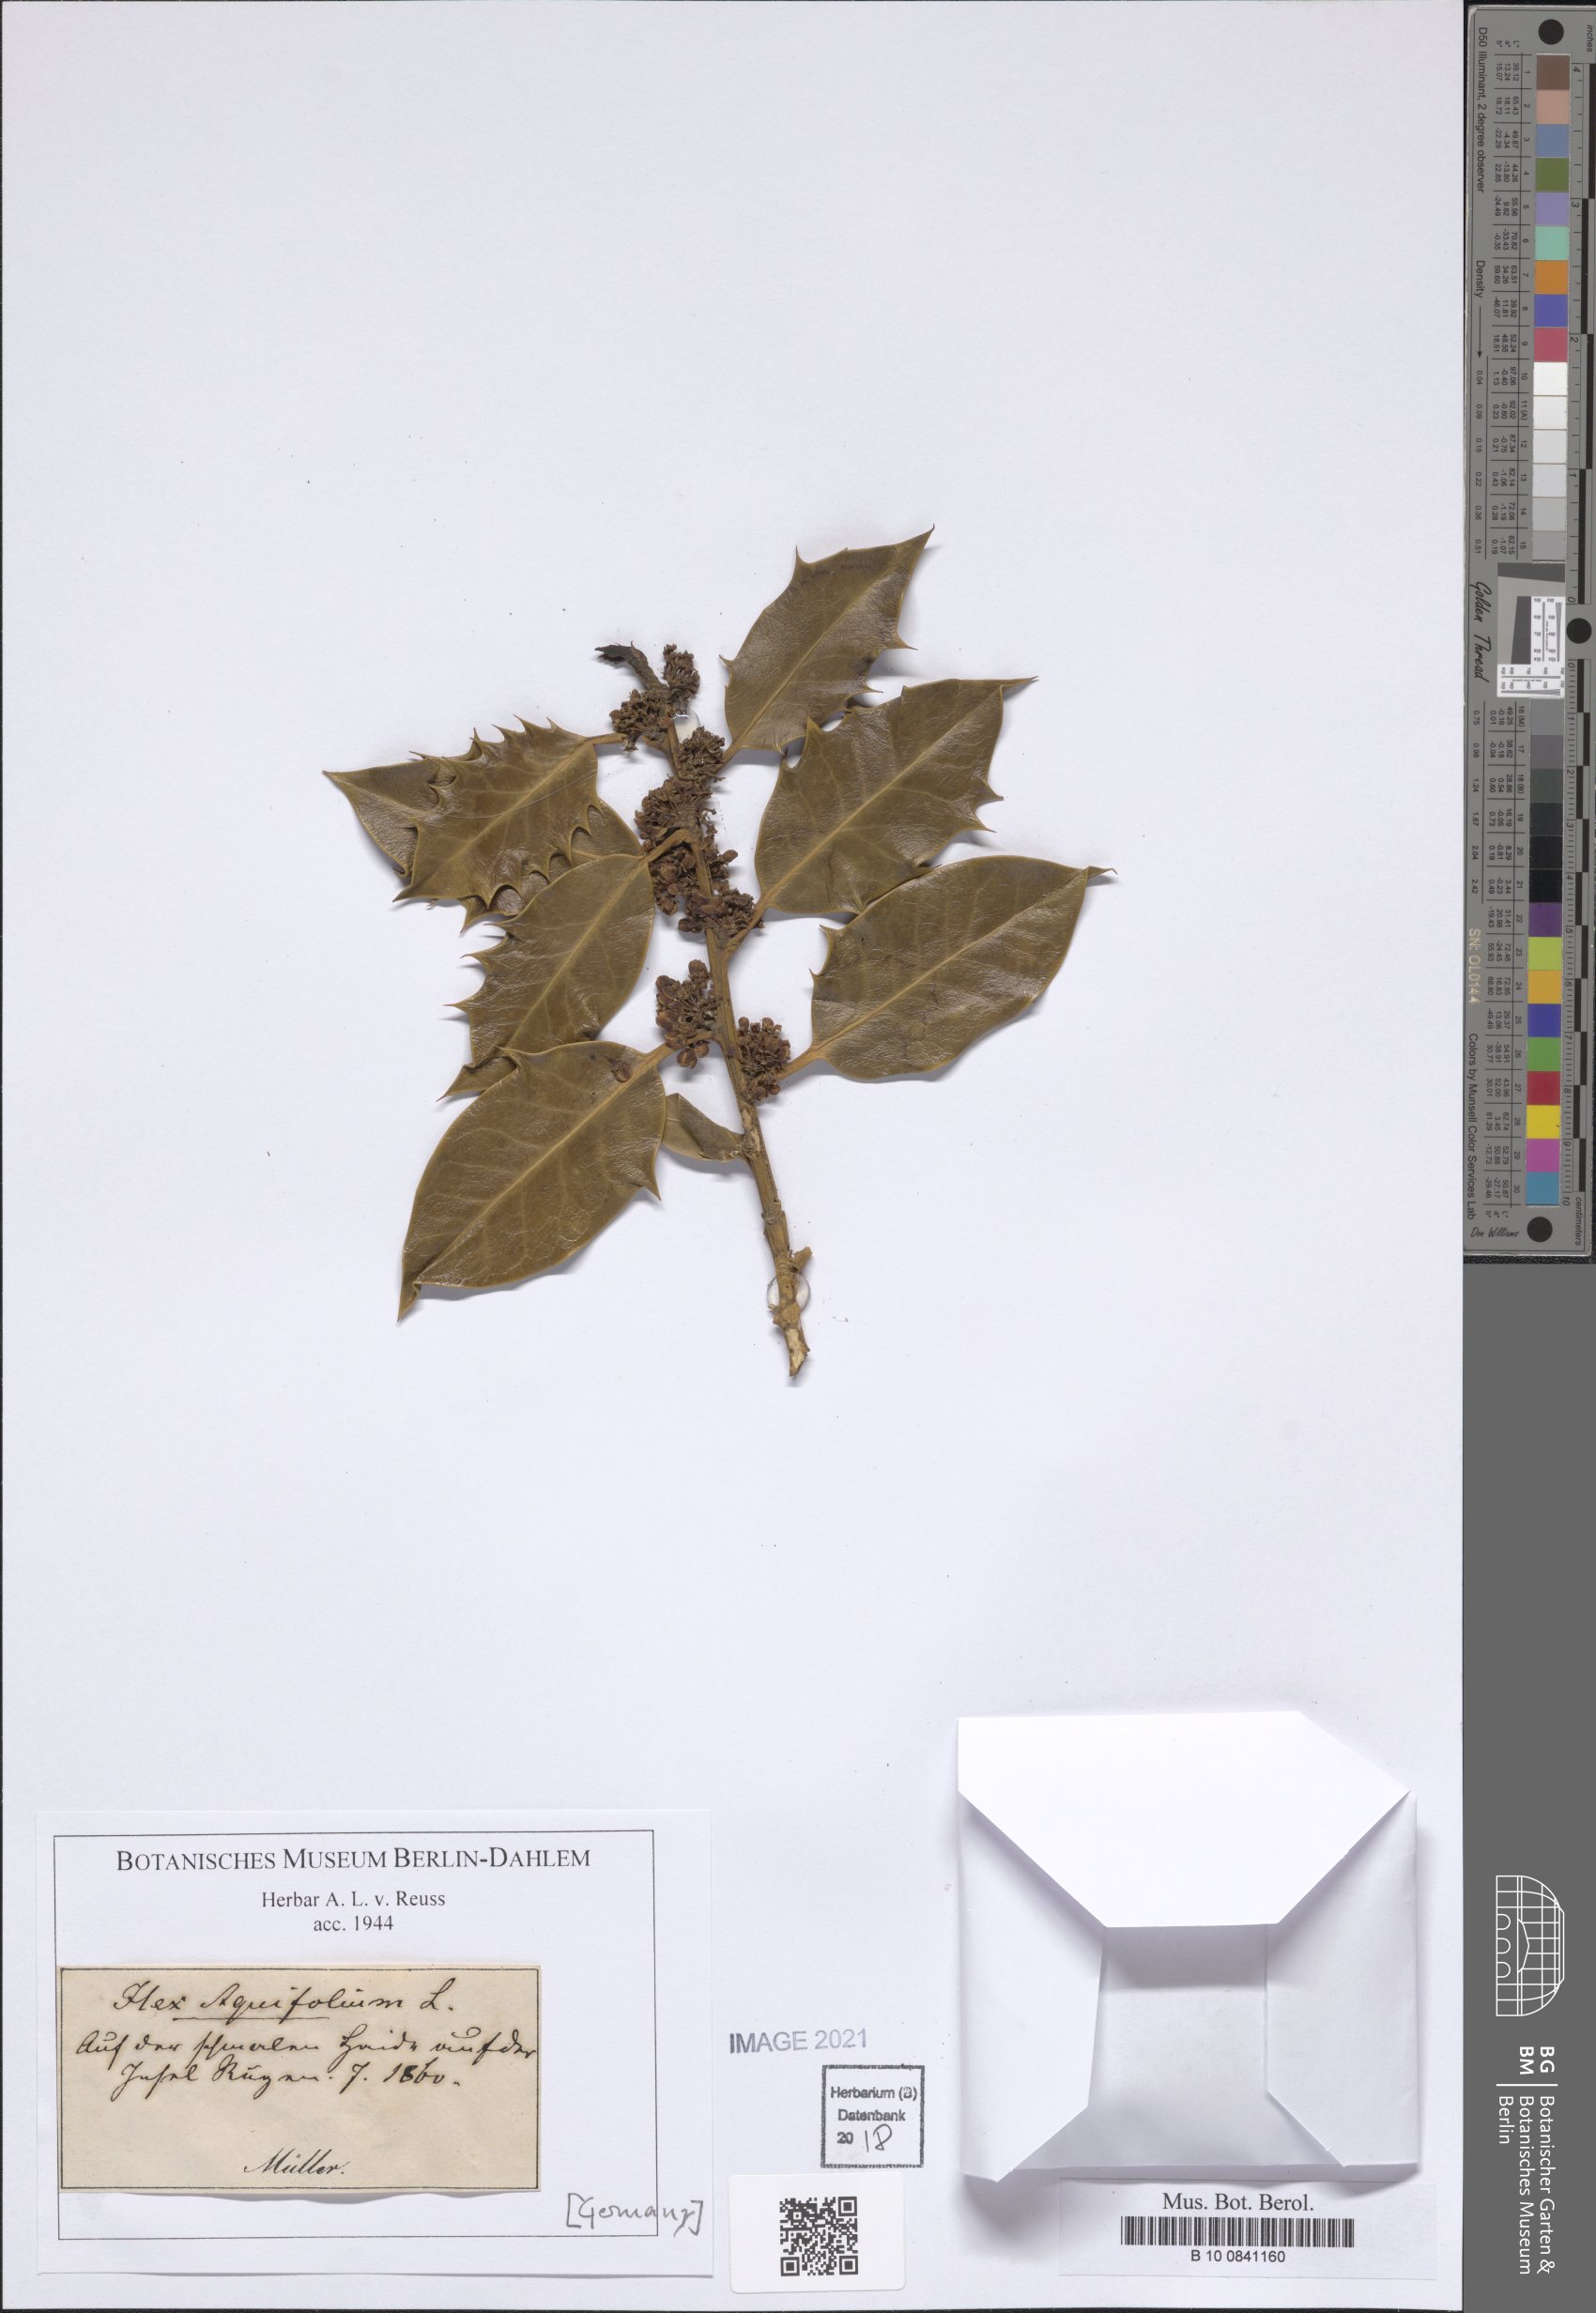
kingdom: Plantae
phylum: Tracheophyta
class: Magnoliopsida
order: Aquifoliales
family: Aquifoliaceae
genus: Ilex
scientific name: Ilex aquifolium
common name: English holly
